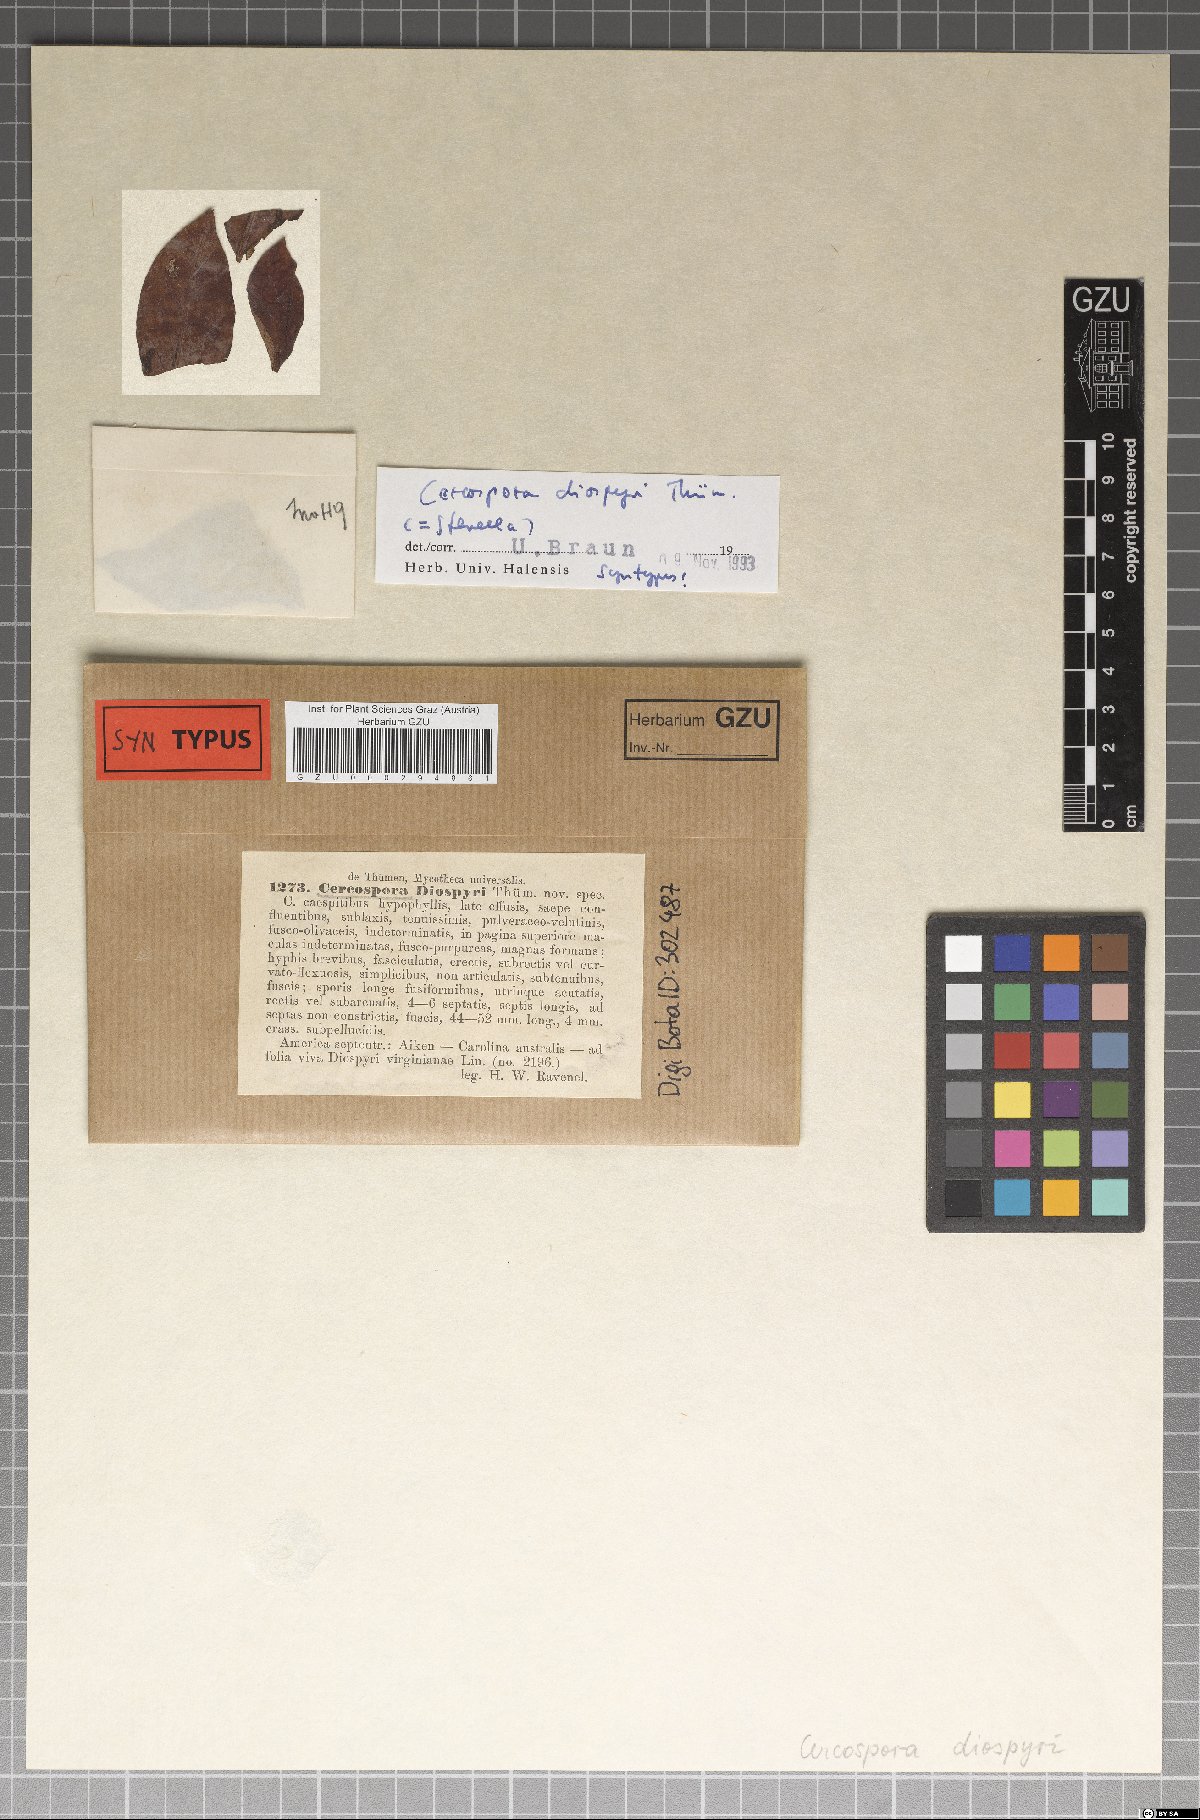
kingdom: Fungi
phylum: Ascomycota
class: Dothideomycetes
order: Mycosphaerellales
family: Mycosphaerellaceae
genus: Zasmidium
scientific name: Zasmidium diospyri
